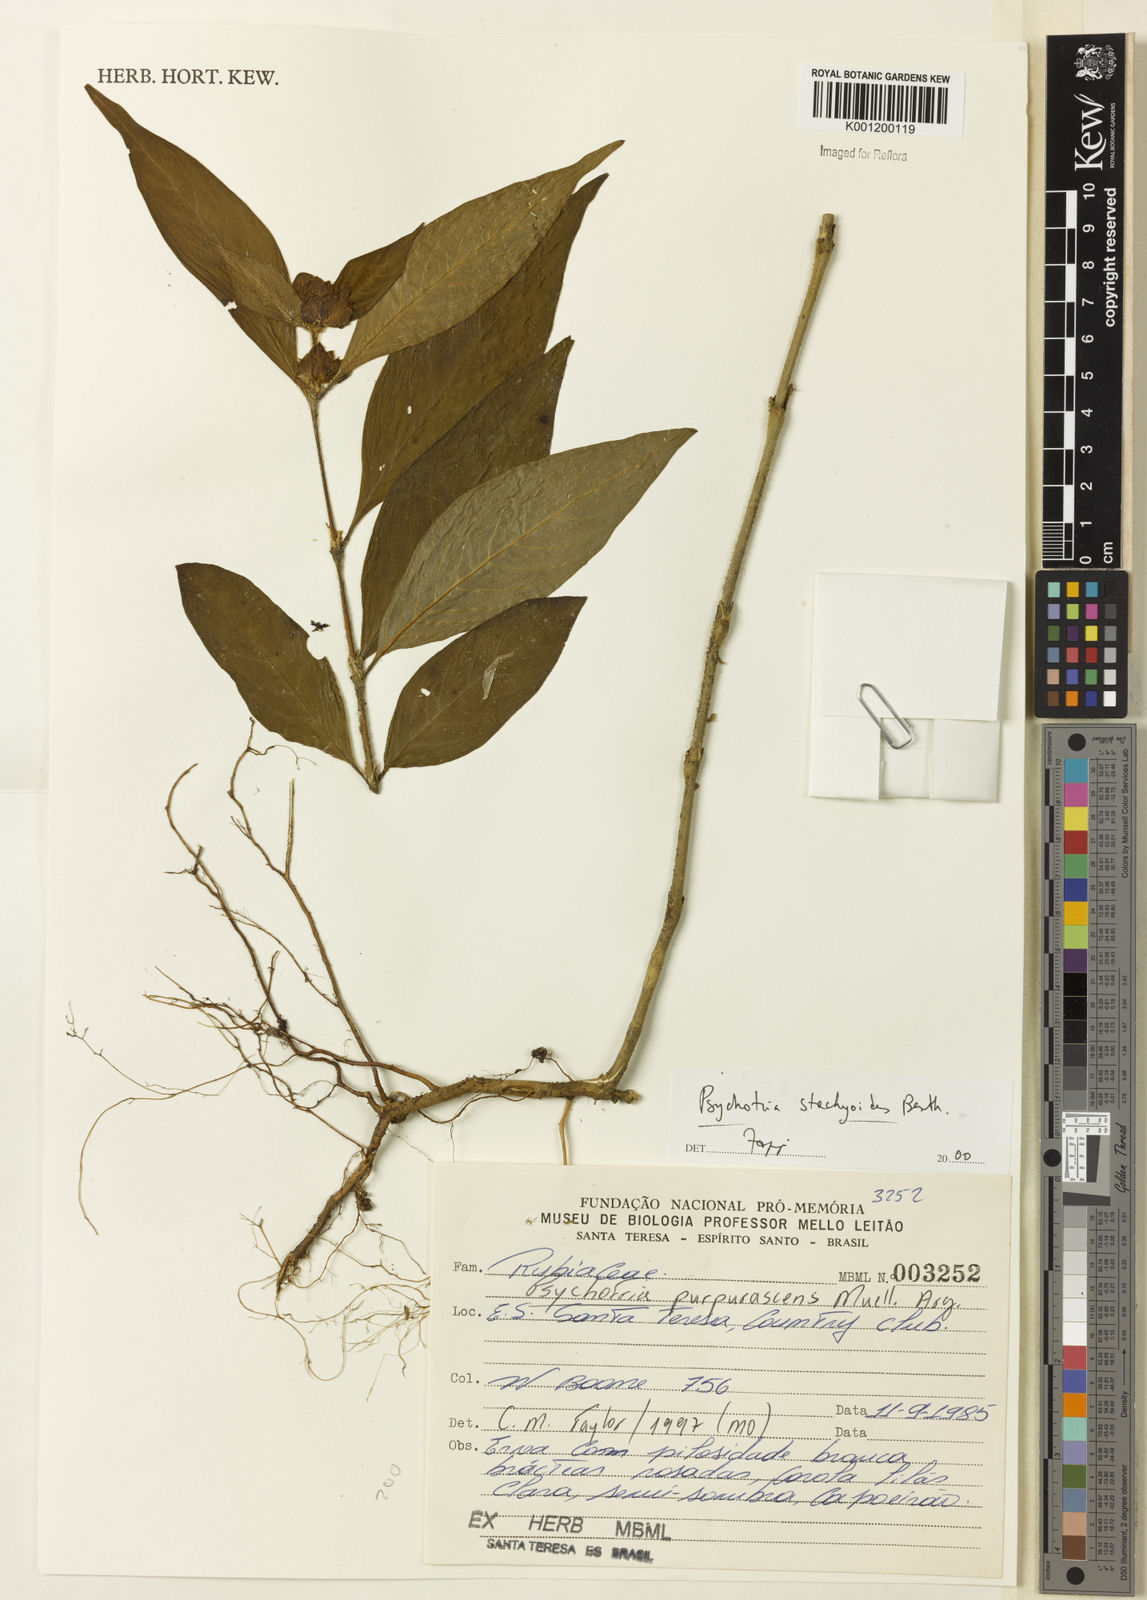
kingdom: Plantae
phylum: Tracheophyta
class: Magnoliopsida
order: Gentianales
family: Rubiaceae
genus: Psychotria
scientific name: Psychotria stachyoides
